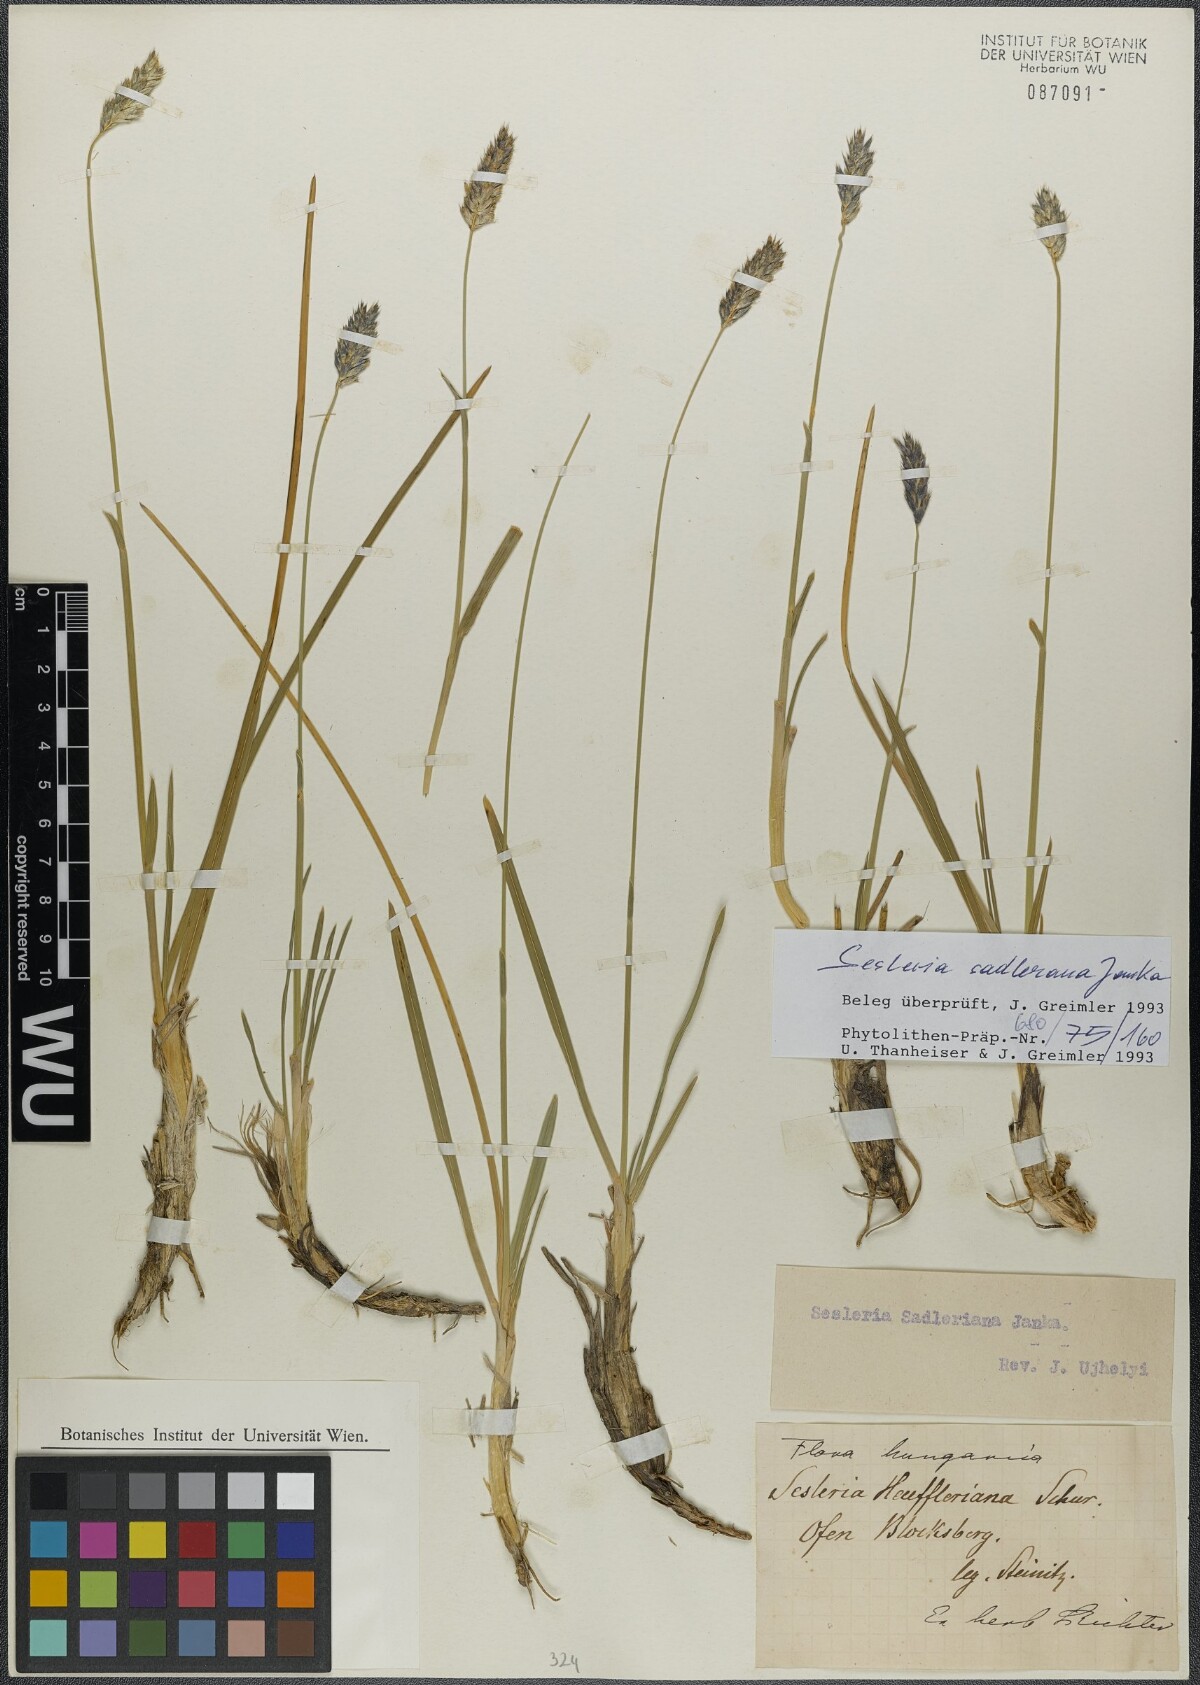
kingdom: Plantae
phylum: Tracheophyta
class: Liliopsida
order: Poales
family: Poaceae
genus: Sesleria
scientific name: Sesleria sadleriana
